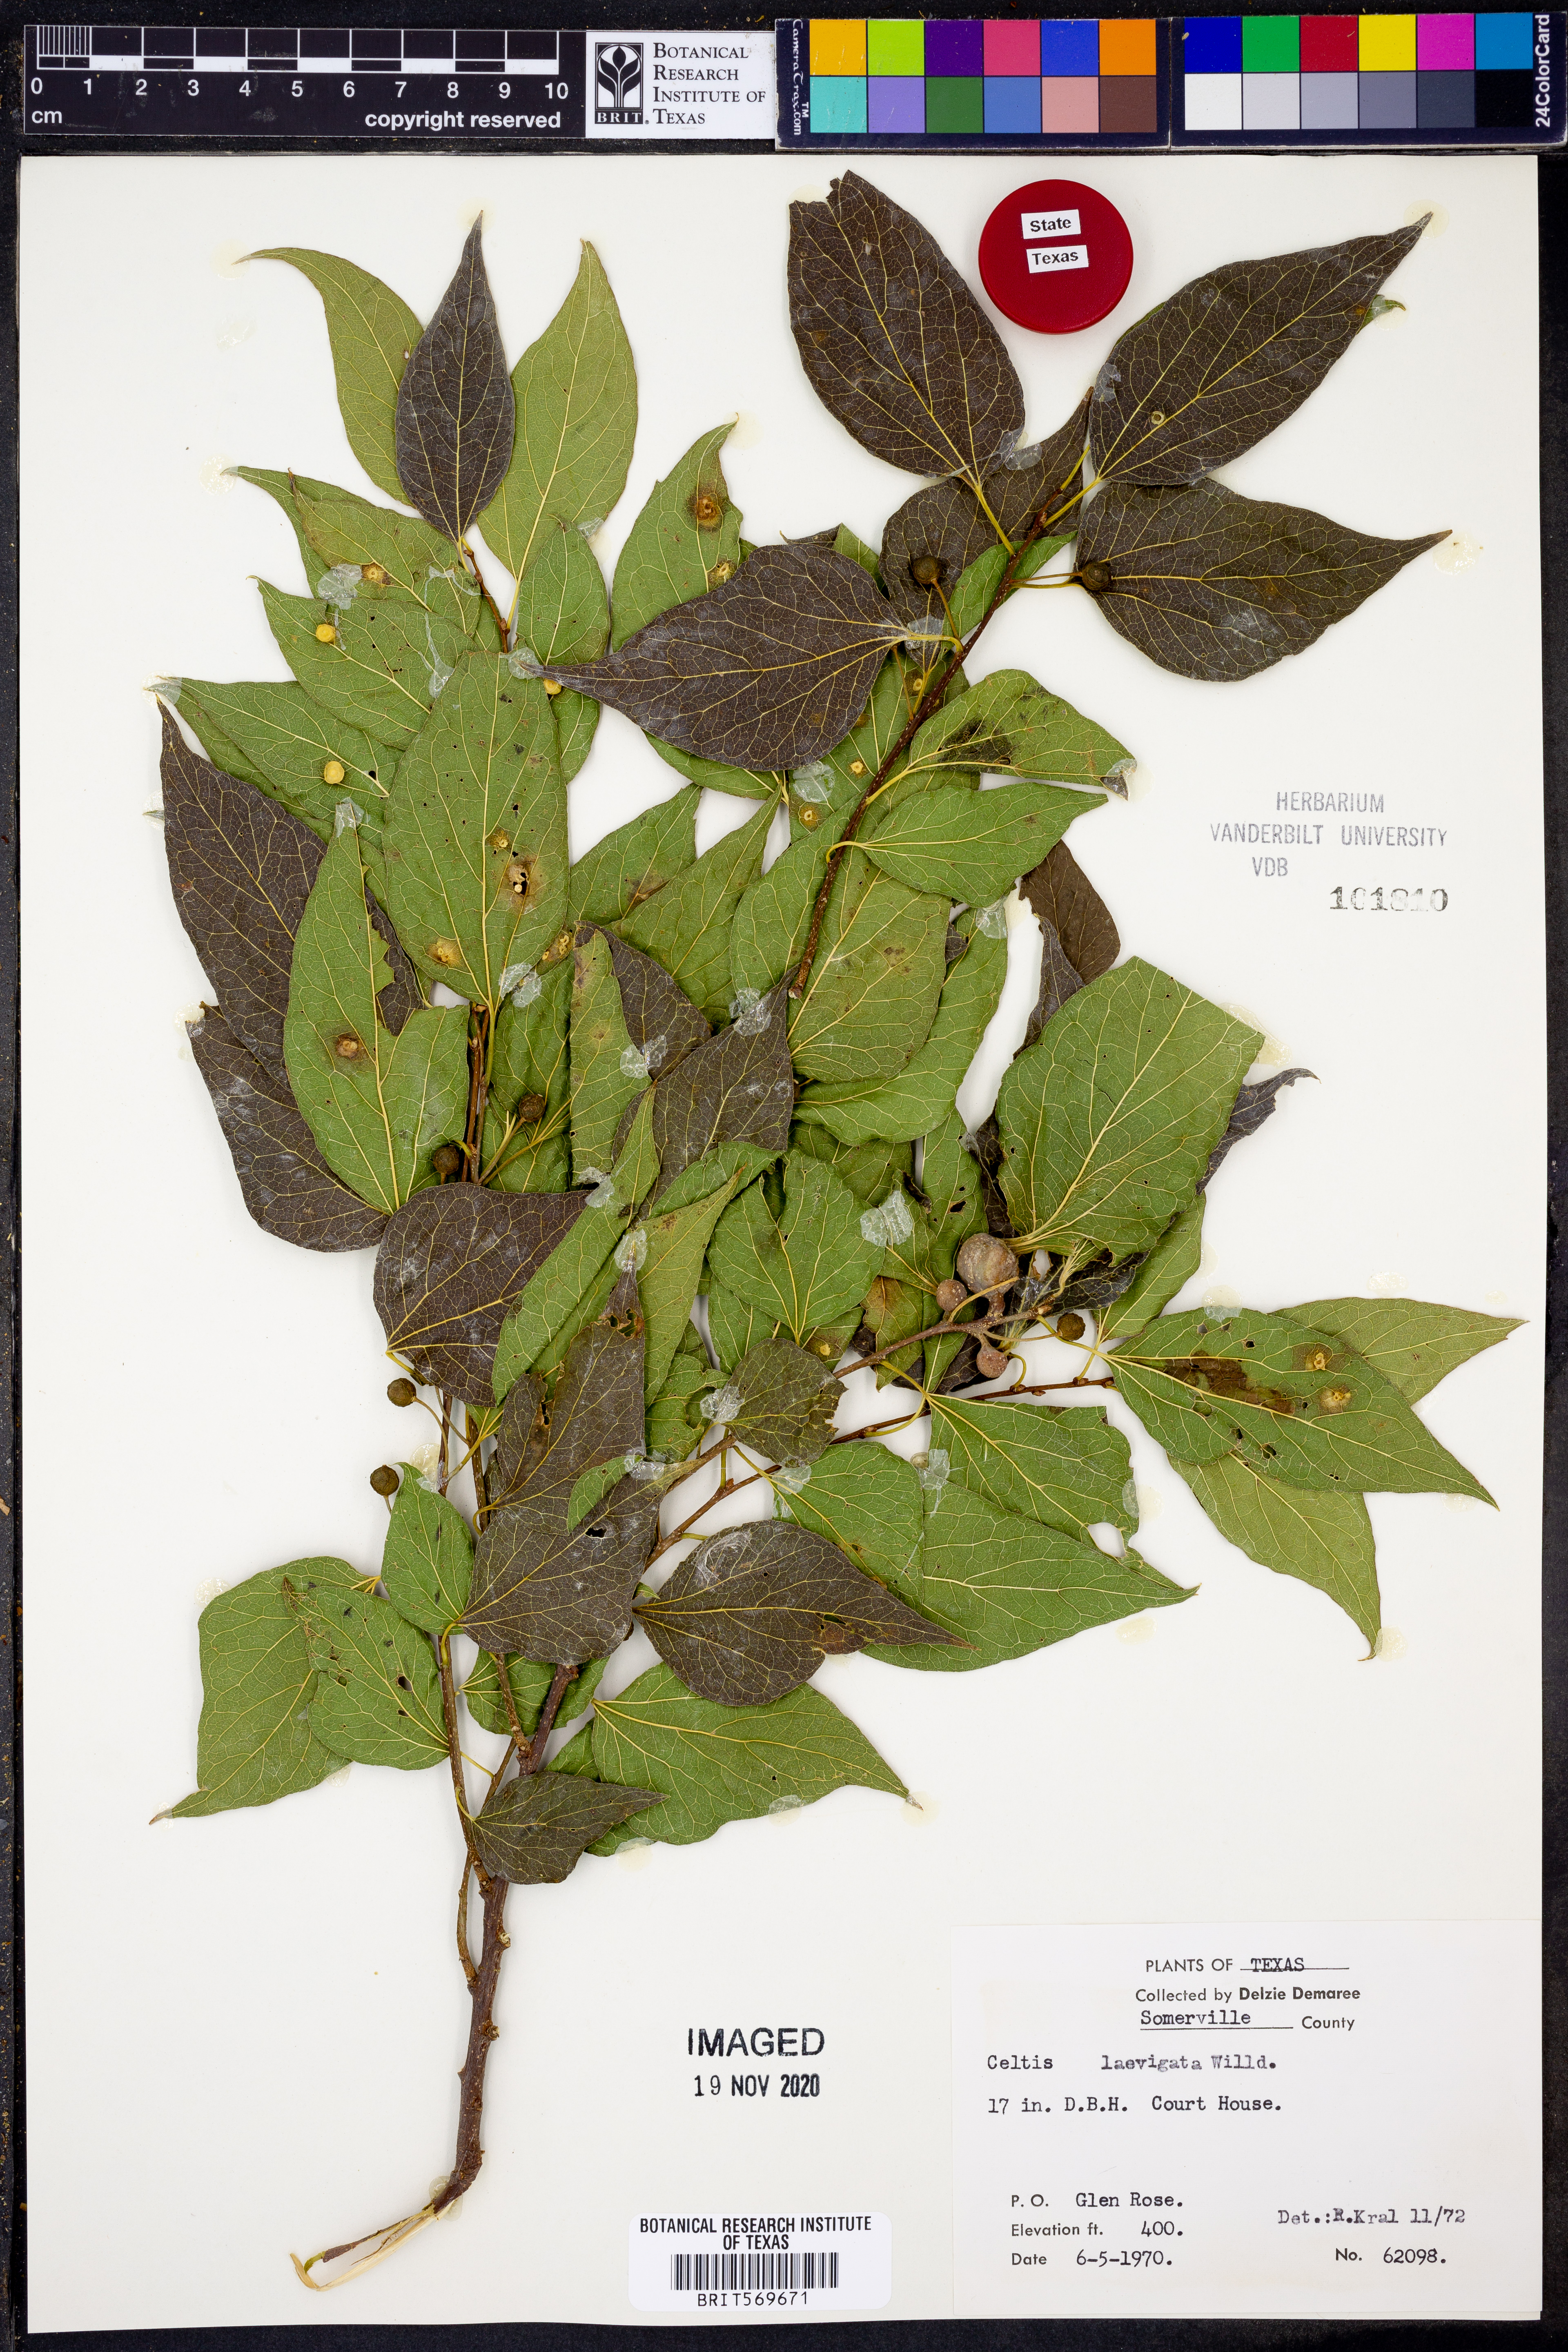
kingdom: Plantae
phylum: Tracheophyta
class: Magnoliopsida
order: Rosales
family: Cannabaceae
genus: Celtis
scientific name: Celtis laevigata
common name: Sugarberry
